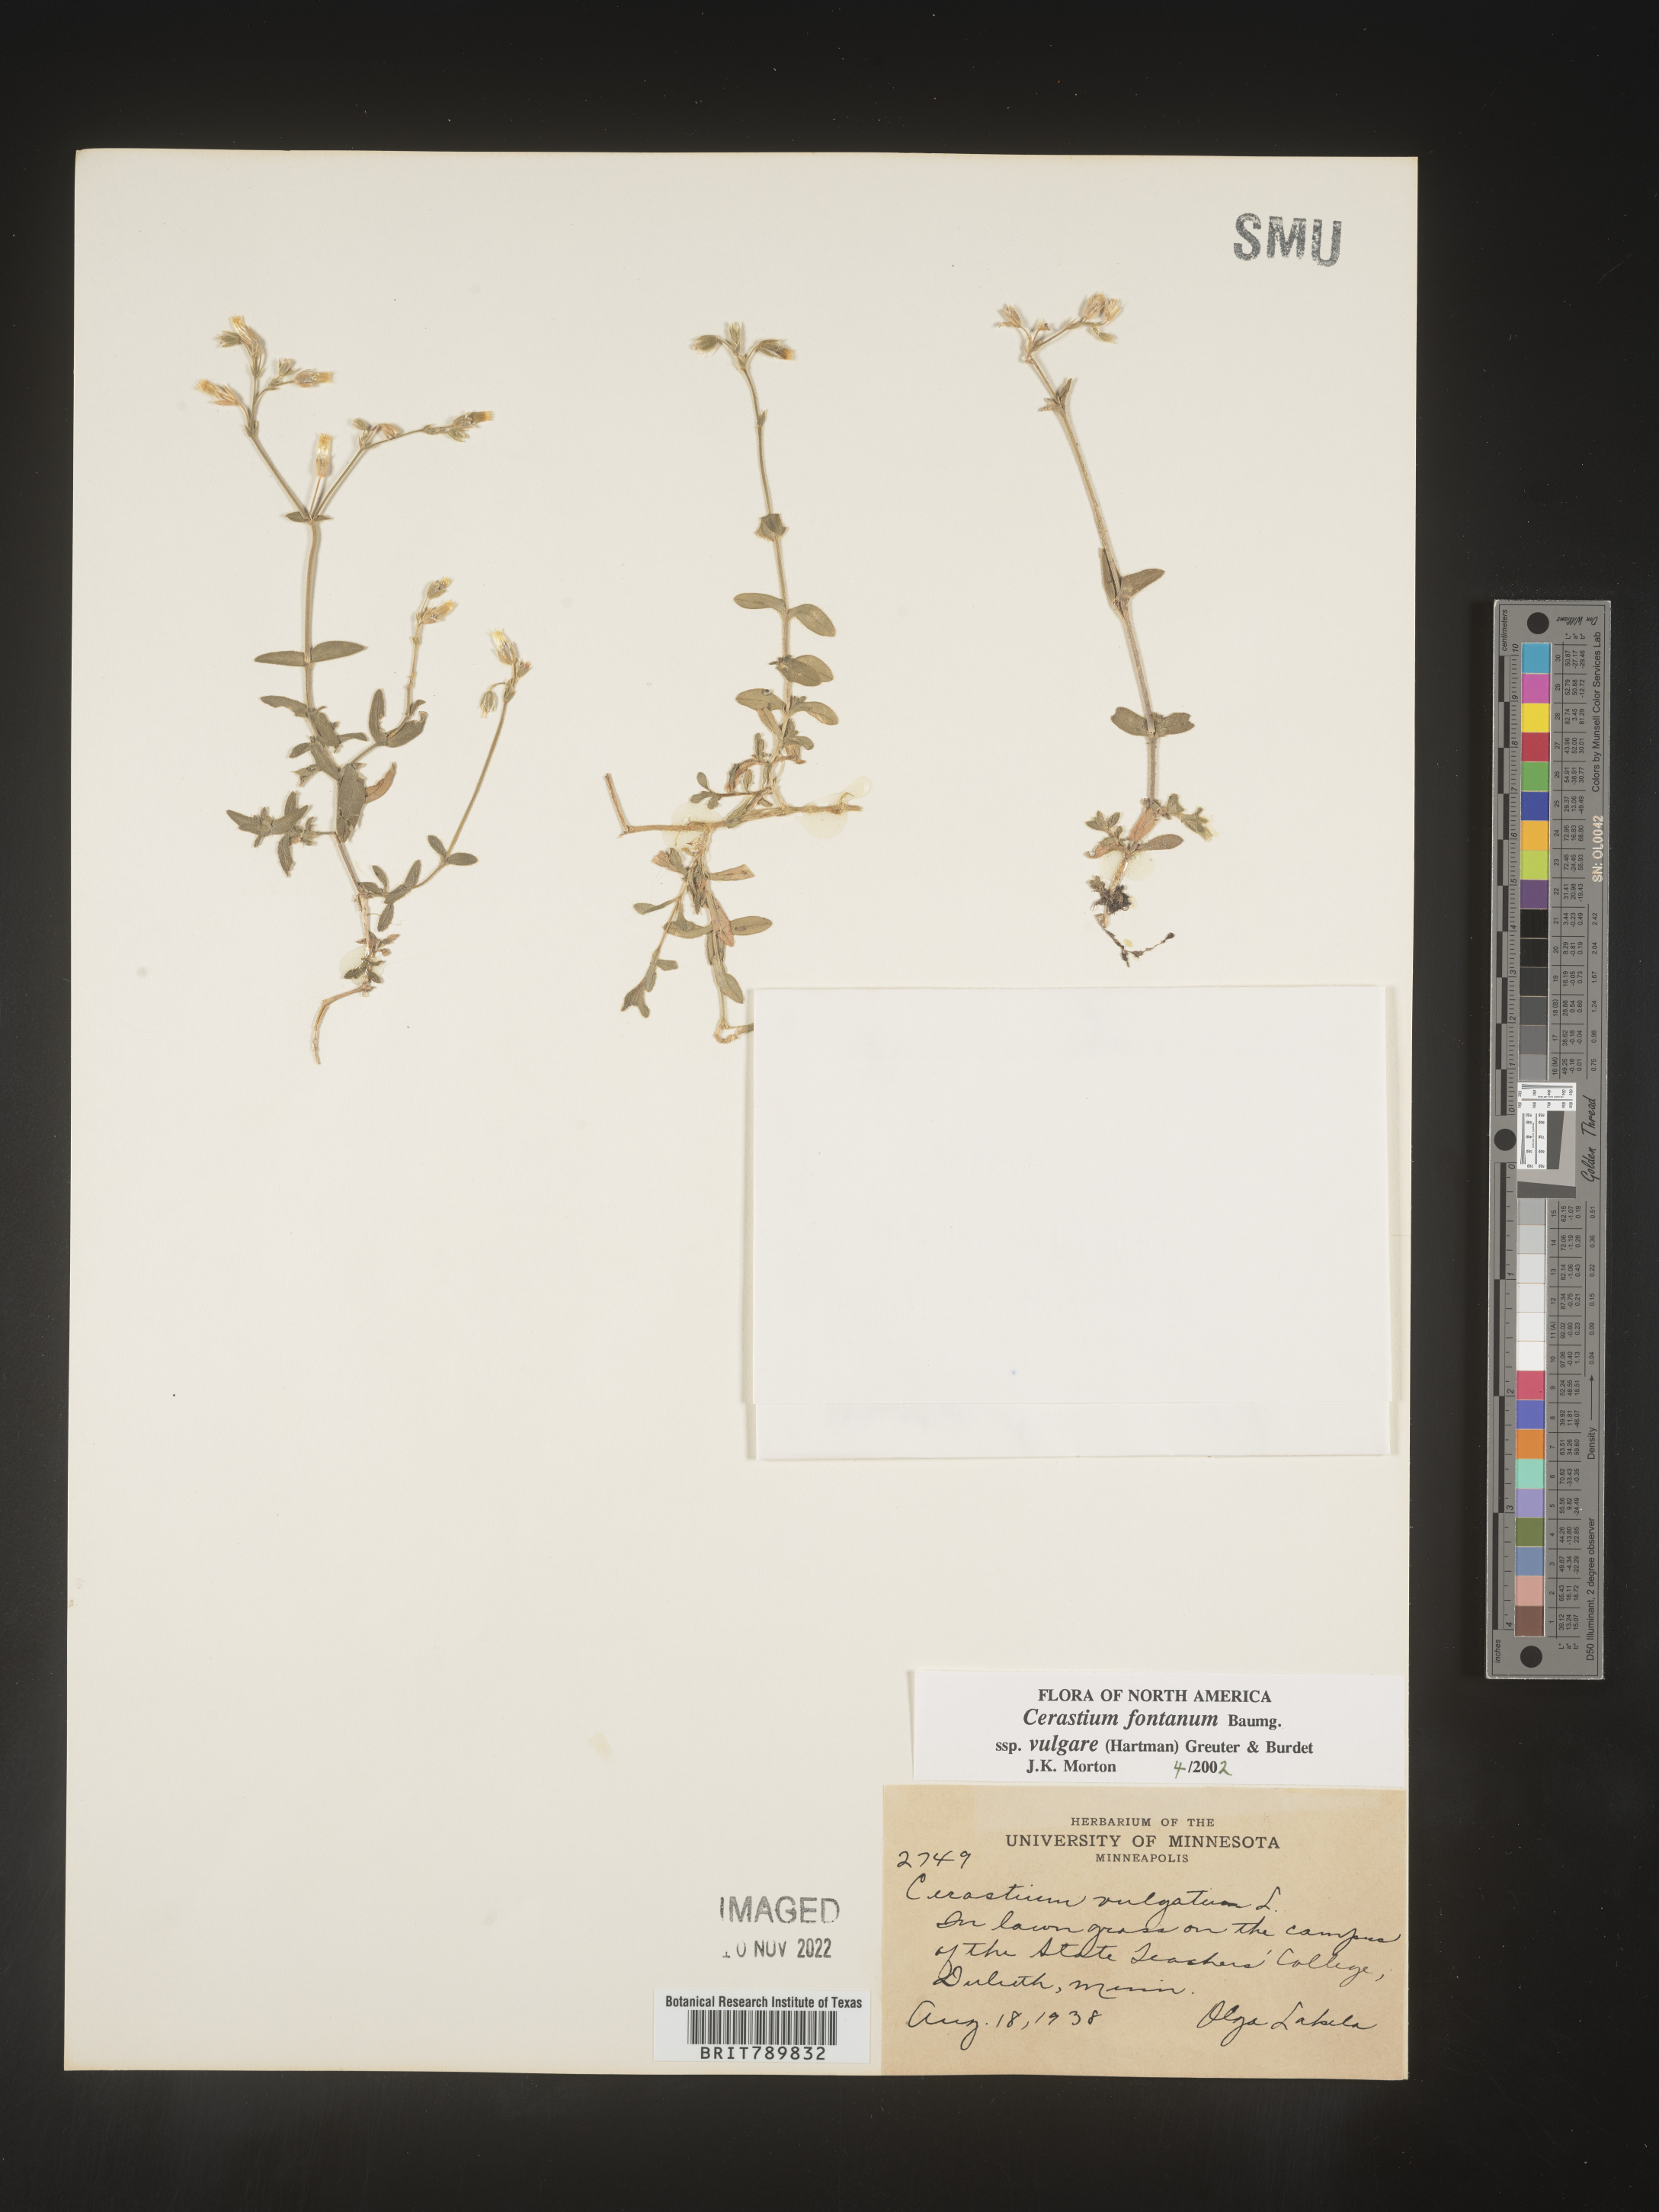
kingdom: Plantae
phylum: Tracheophyta
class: Magnoliopsida
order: Caryophyllales
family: Caryophyllaceae
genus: Cerastium
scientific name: Cerastium fontanum
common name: Common mouse-ear
